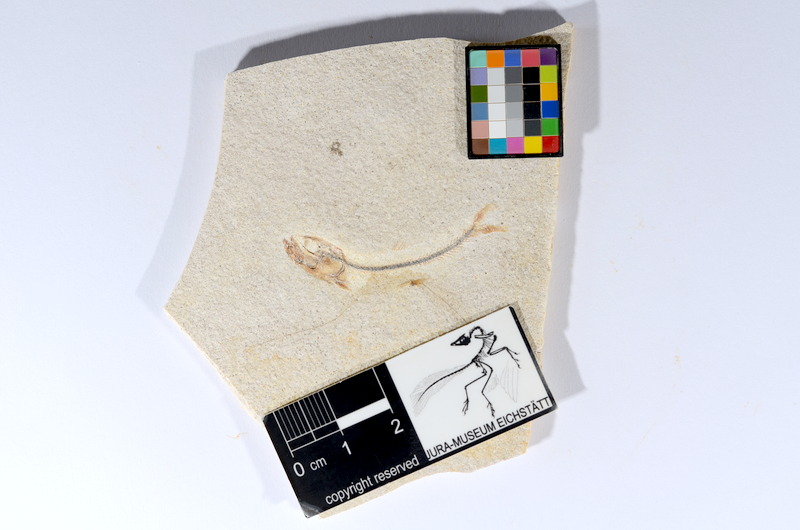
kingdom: Animalia
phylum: Chordata
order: Salmoniformes
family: Orthogonikleithridae
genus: Orthogonikleithrus
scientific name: Orthogonikleithrus hoelli
